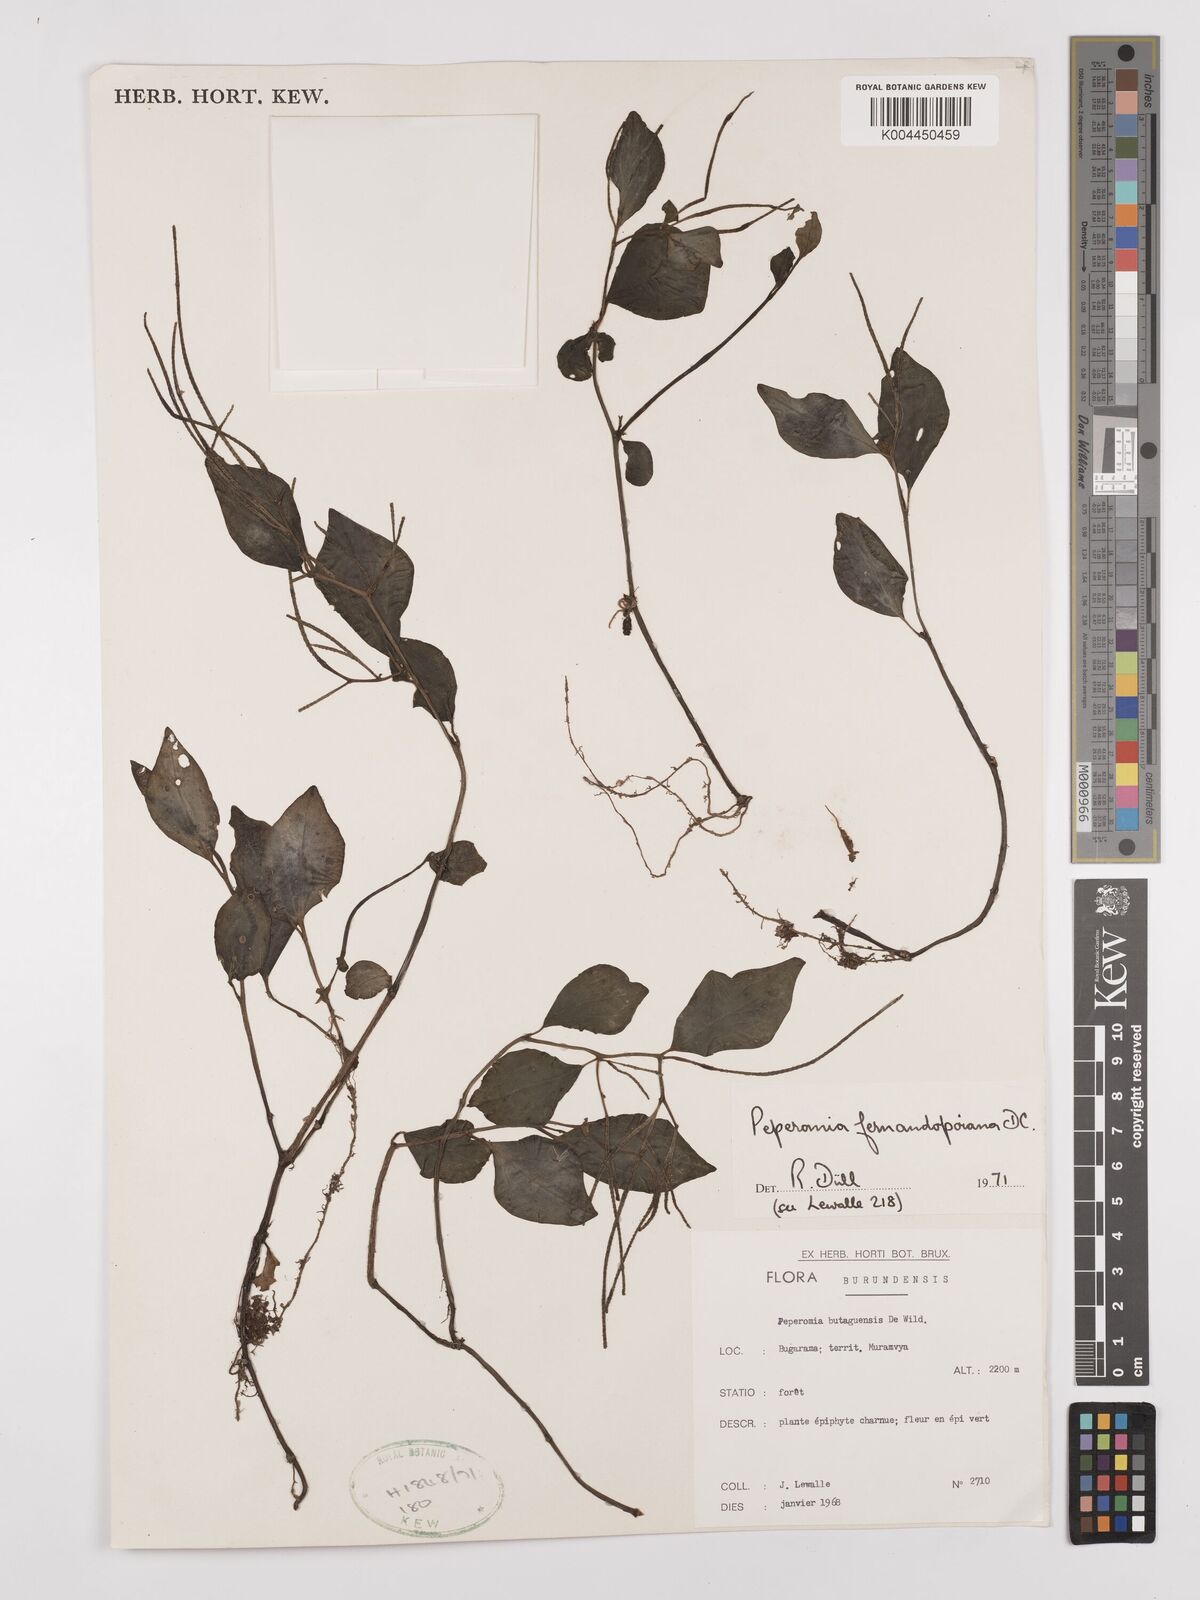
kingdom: Plantae
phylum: Tracheophyta
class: Magnoliopsida
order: Piperales
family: Piperaceae
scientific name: Piperaceae
